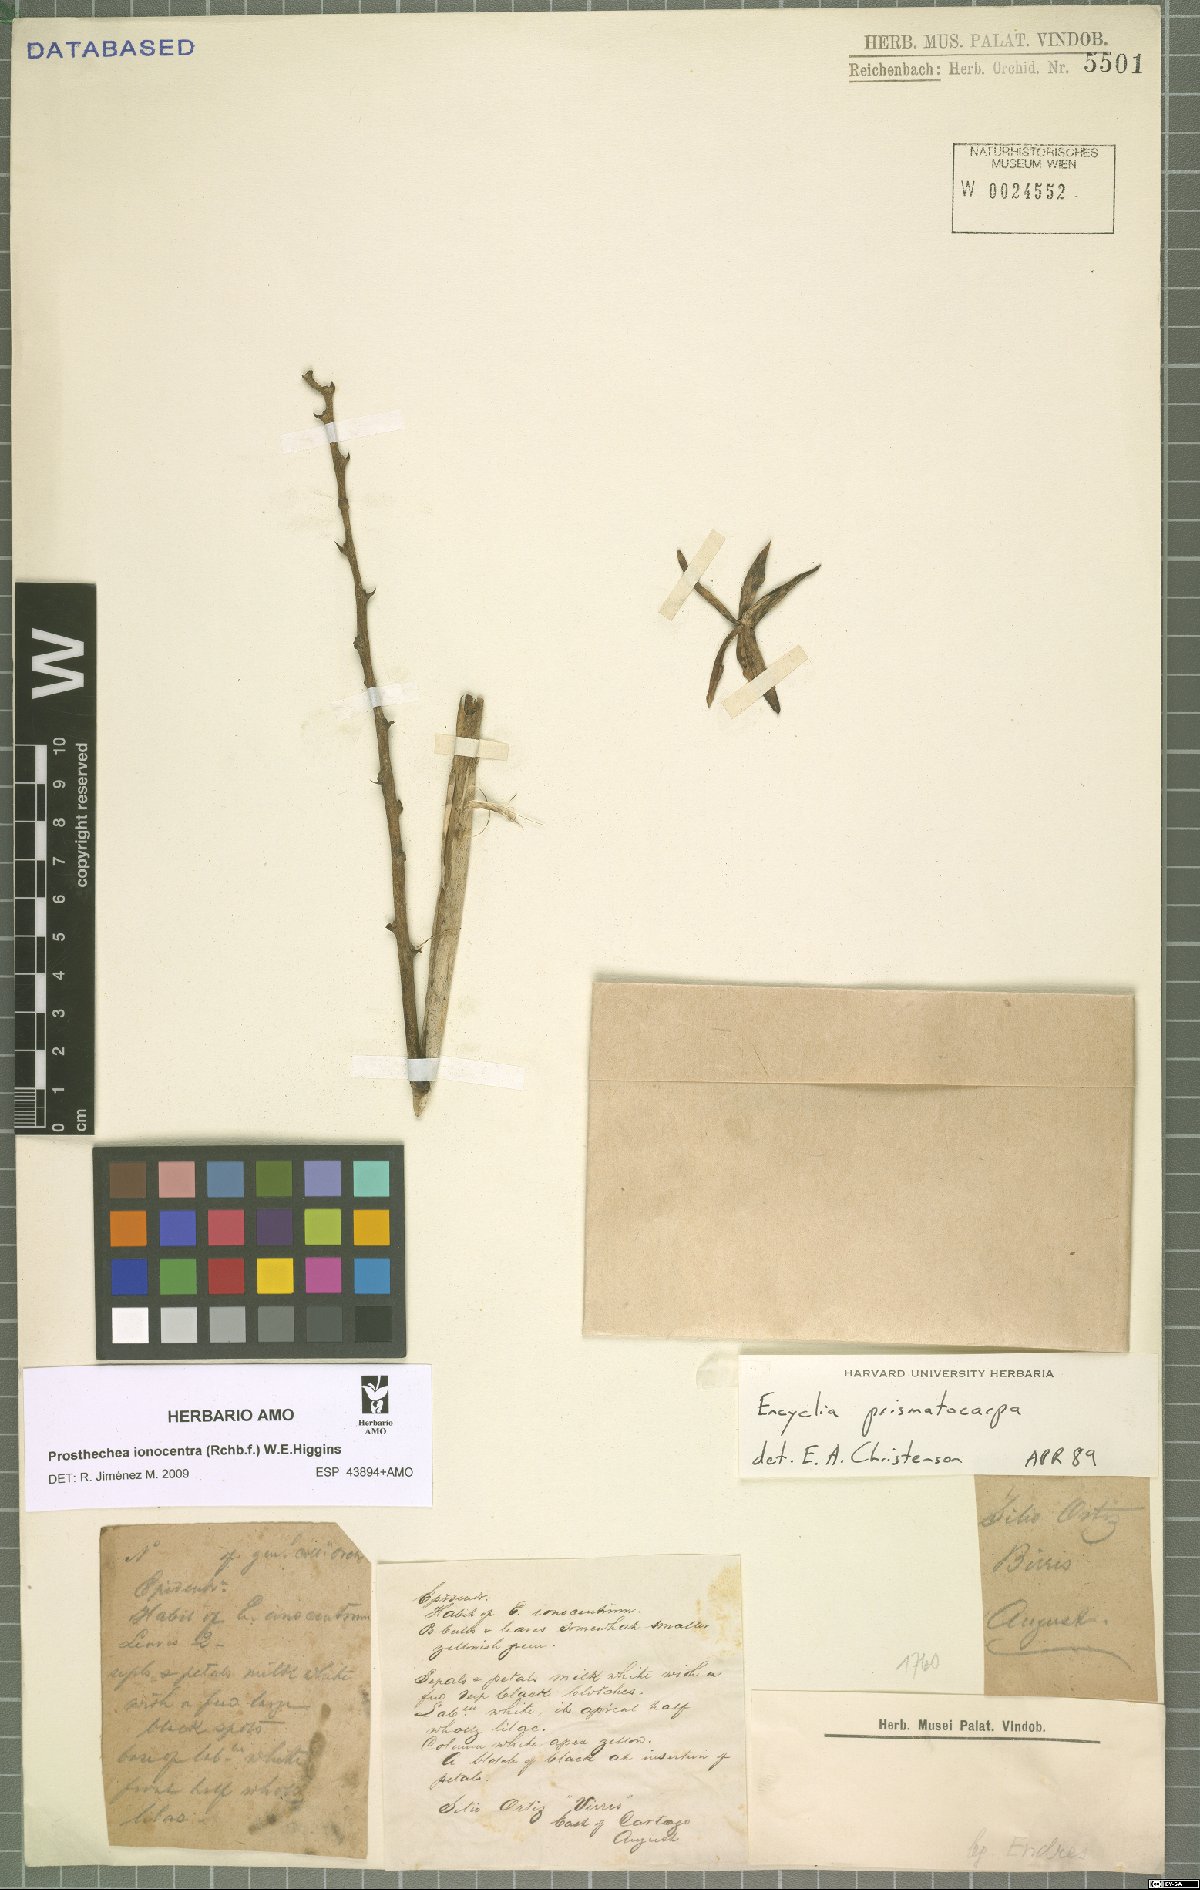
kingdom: Plantae
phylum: Tracheophyta
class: Liliopsida
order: Asparagales
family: Orchidaceae
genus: Prosthechea
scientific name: Prosthechea ionocentra
